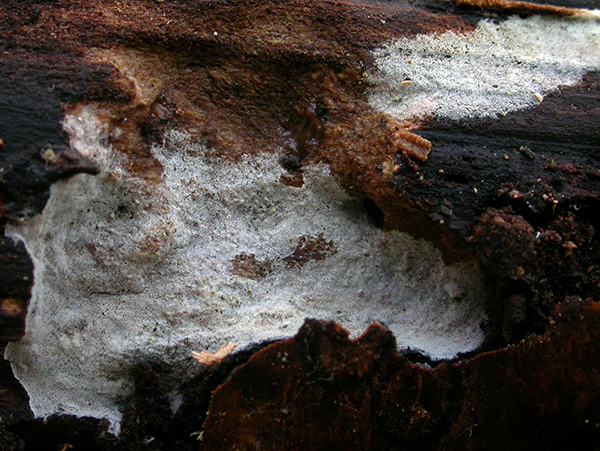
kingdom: Fungi
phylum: Basidiomycota
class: Agaricomycetes
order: Atheliales
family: Atheliaceae
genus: Athelopsis
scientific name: Athelopsis glaucina
